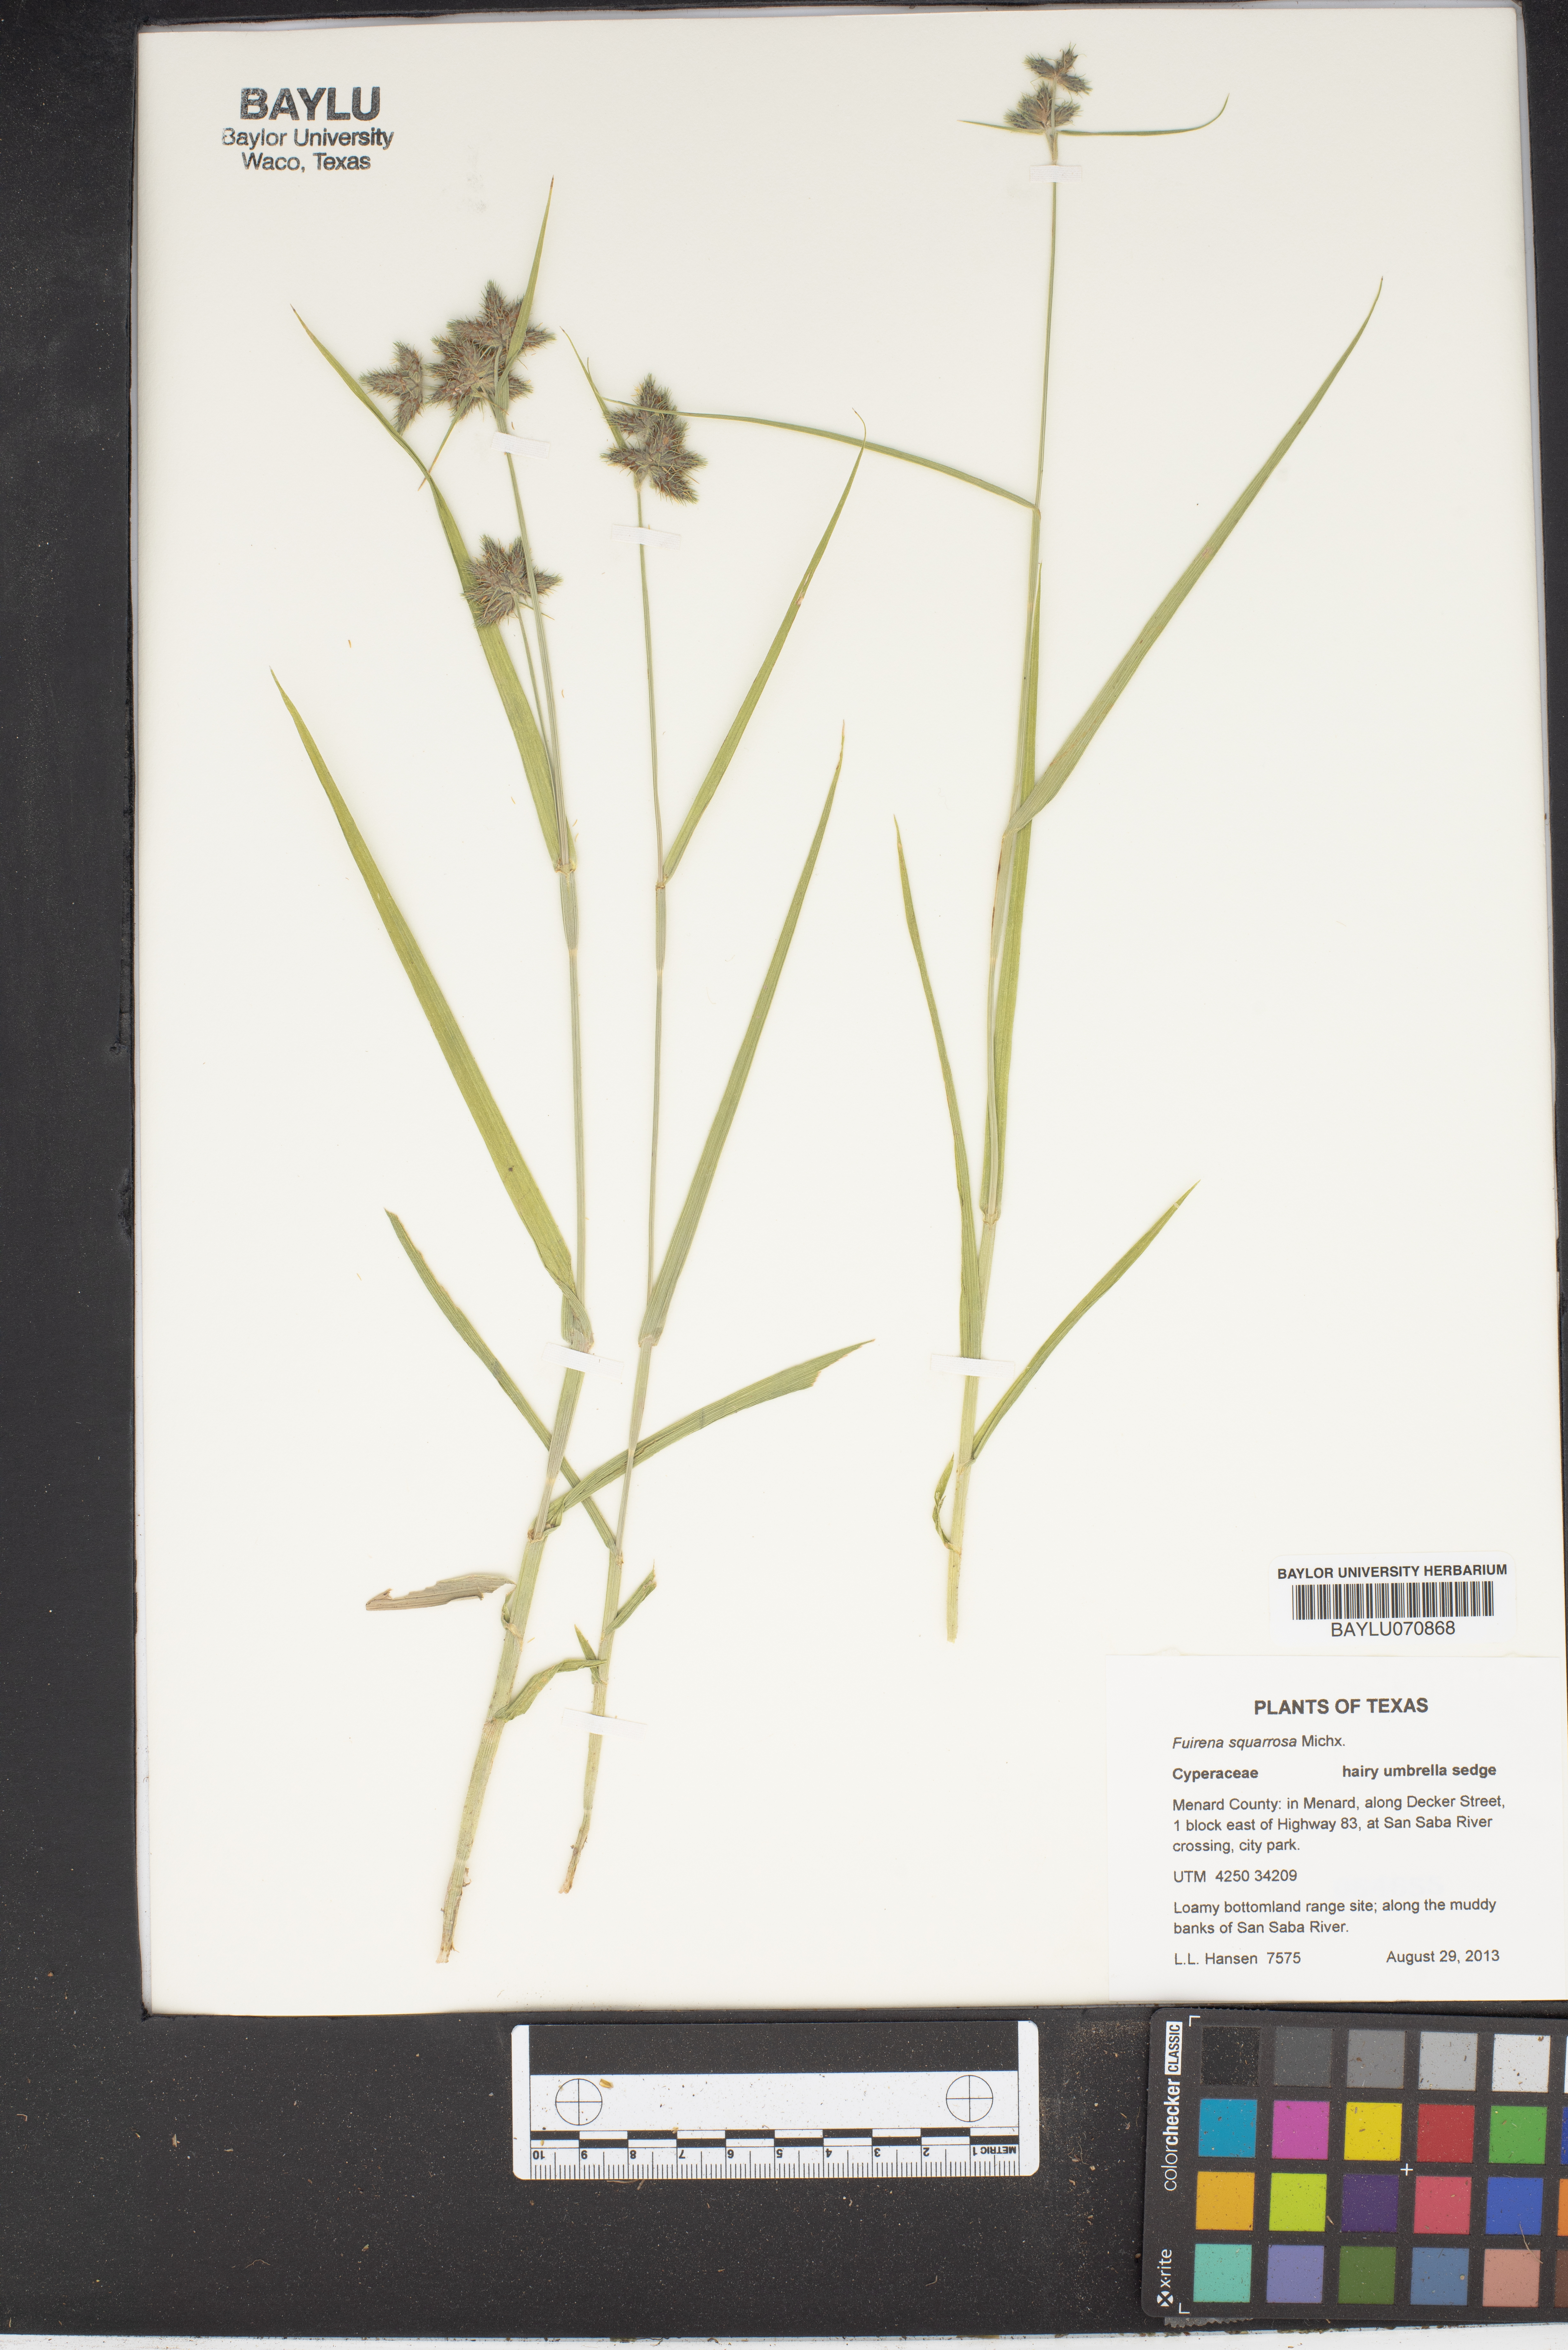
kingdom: Plantae
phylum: Tracheophyta
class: Liliopsida
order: Poales
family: Cyperaceae
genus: Fuirena
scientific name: Fuirena squarrosa
